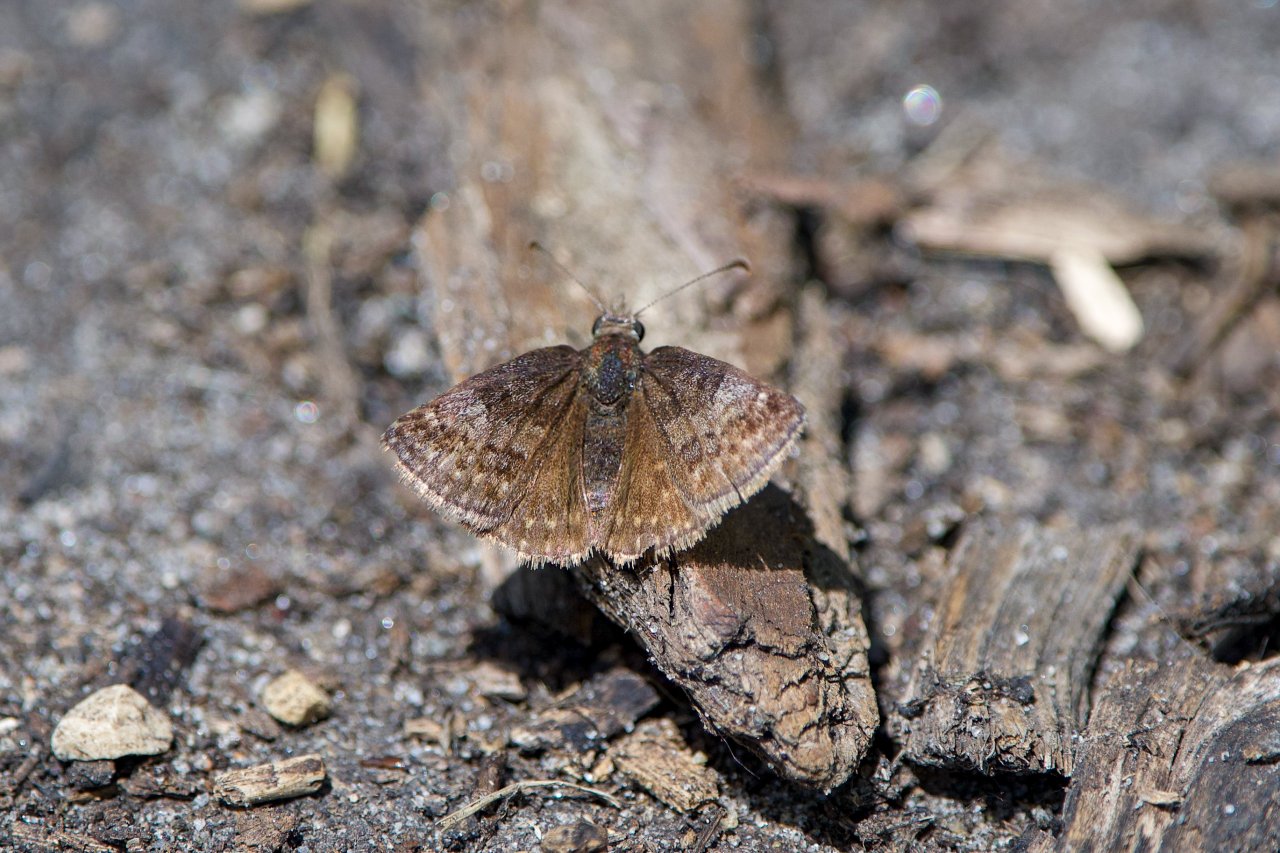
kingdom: Animalia
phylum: Arthropoda
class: Insecta
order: Lepidoptera
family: Hesperiidae
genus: Erynnis
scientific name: Erynnis icelus
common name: Dreamy Duskywing
